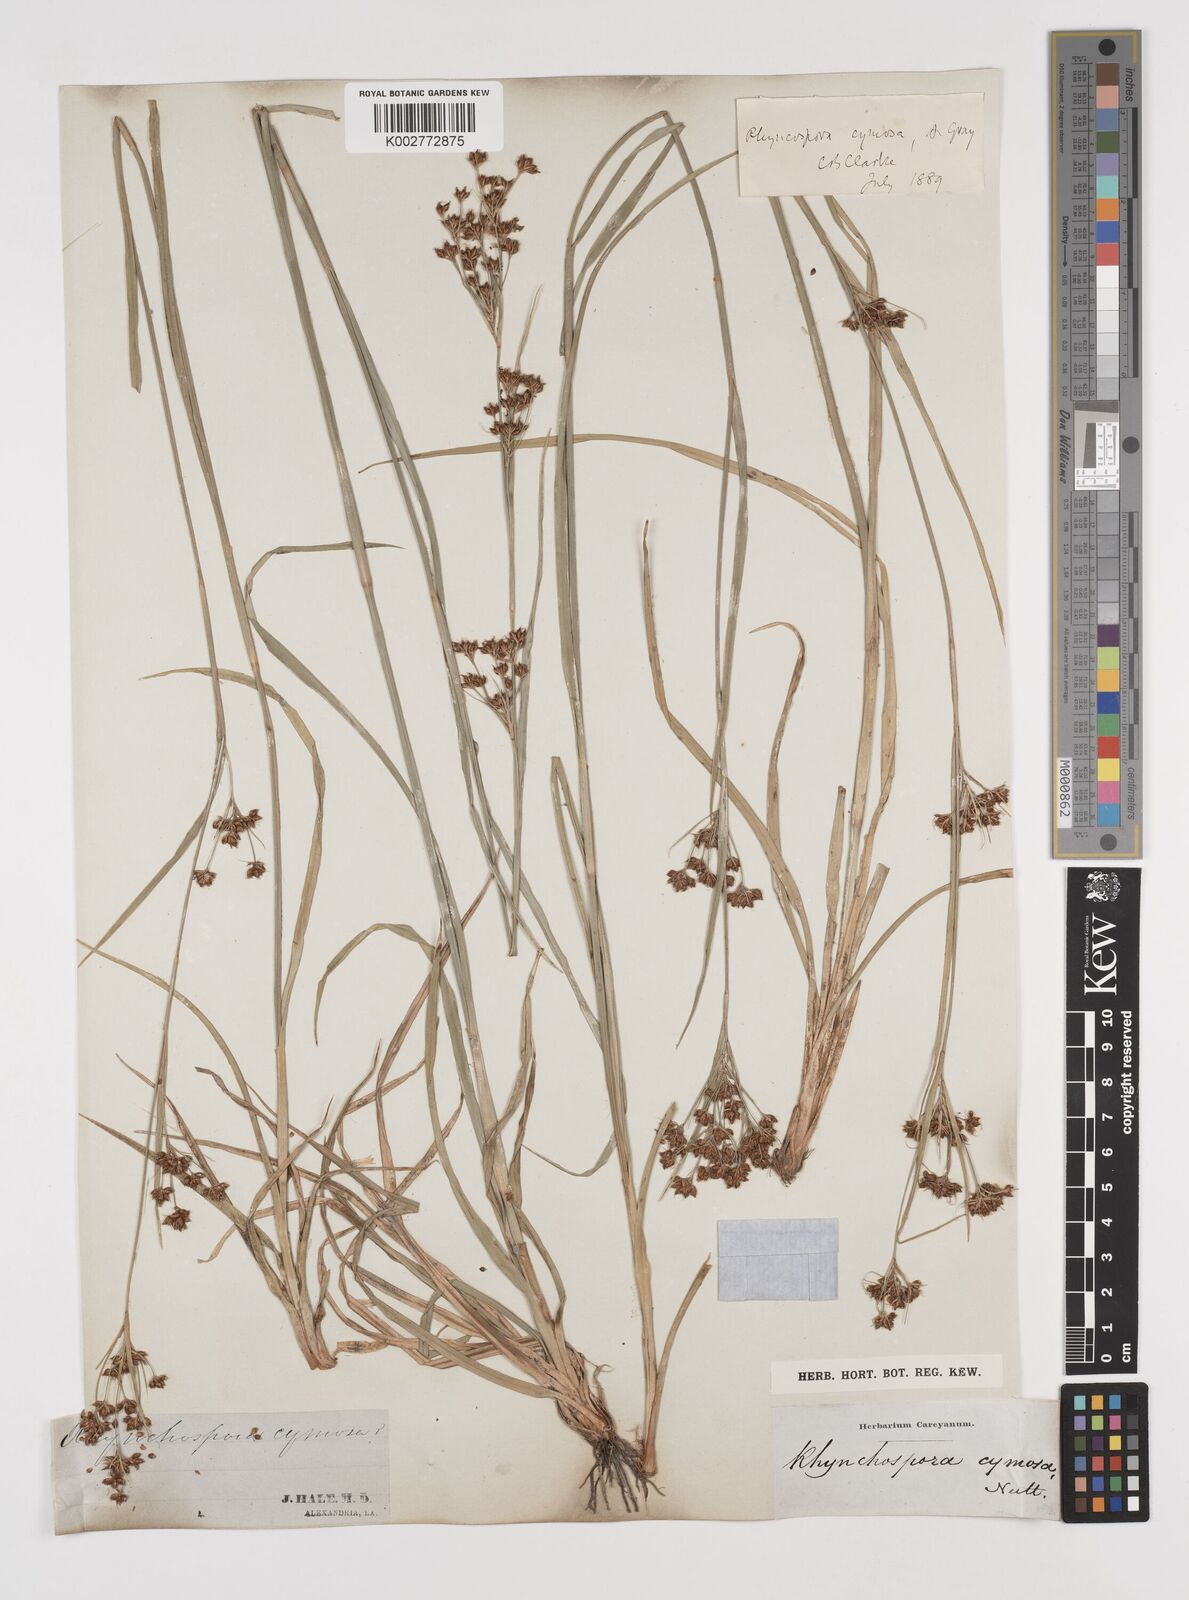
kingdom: Plantae
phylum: Tracheophyta
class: Liliopsida
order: Poales
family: Cyperaceae
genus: Scirpus
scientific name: Scirpus polyphyllus
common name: Leafy bulrush
